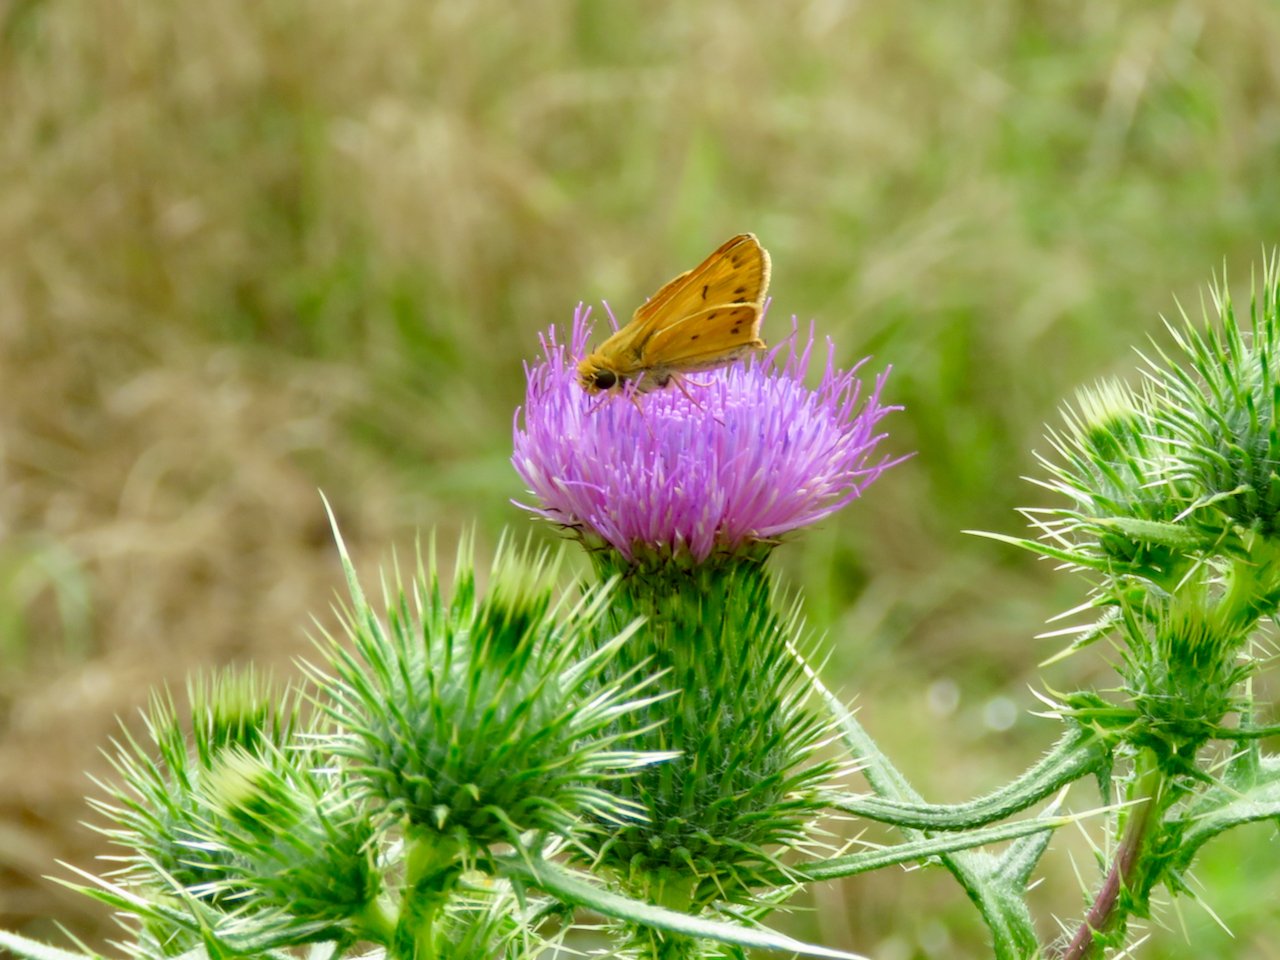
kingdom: Animalia
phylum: Arthropoda
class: Insecta
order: Lepidoptera
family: Hesperiidae
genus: Hylephila
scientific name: Hylephila phyleus
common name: Fiery Skipper
